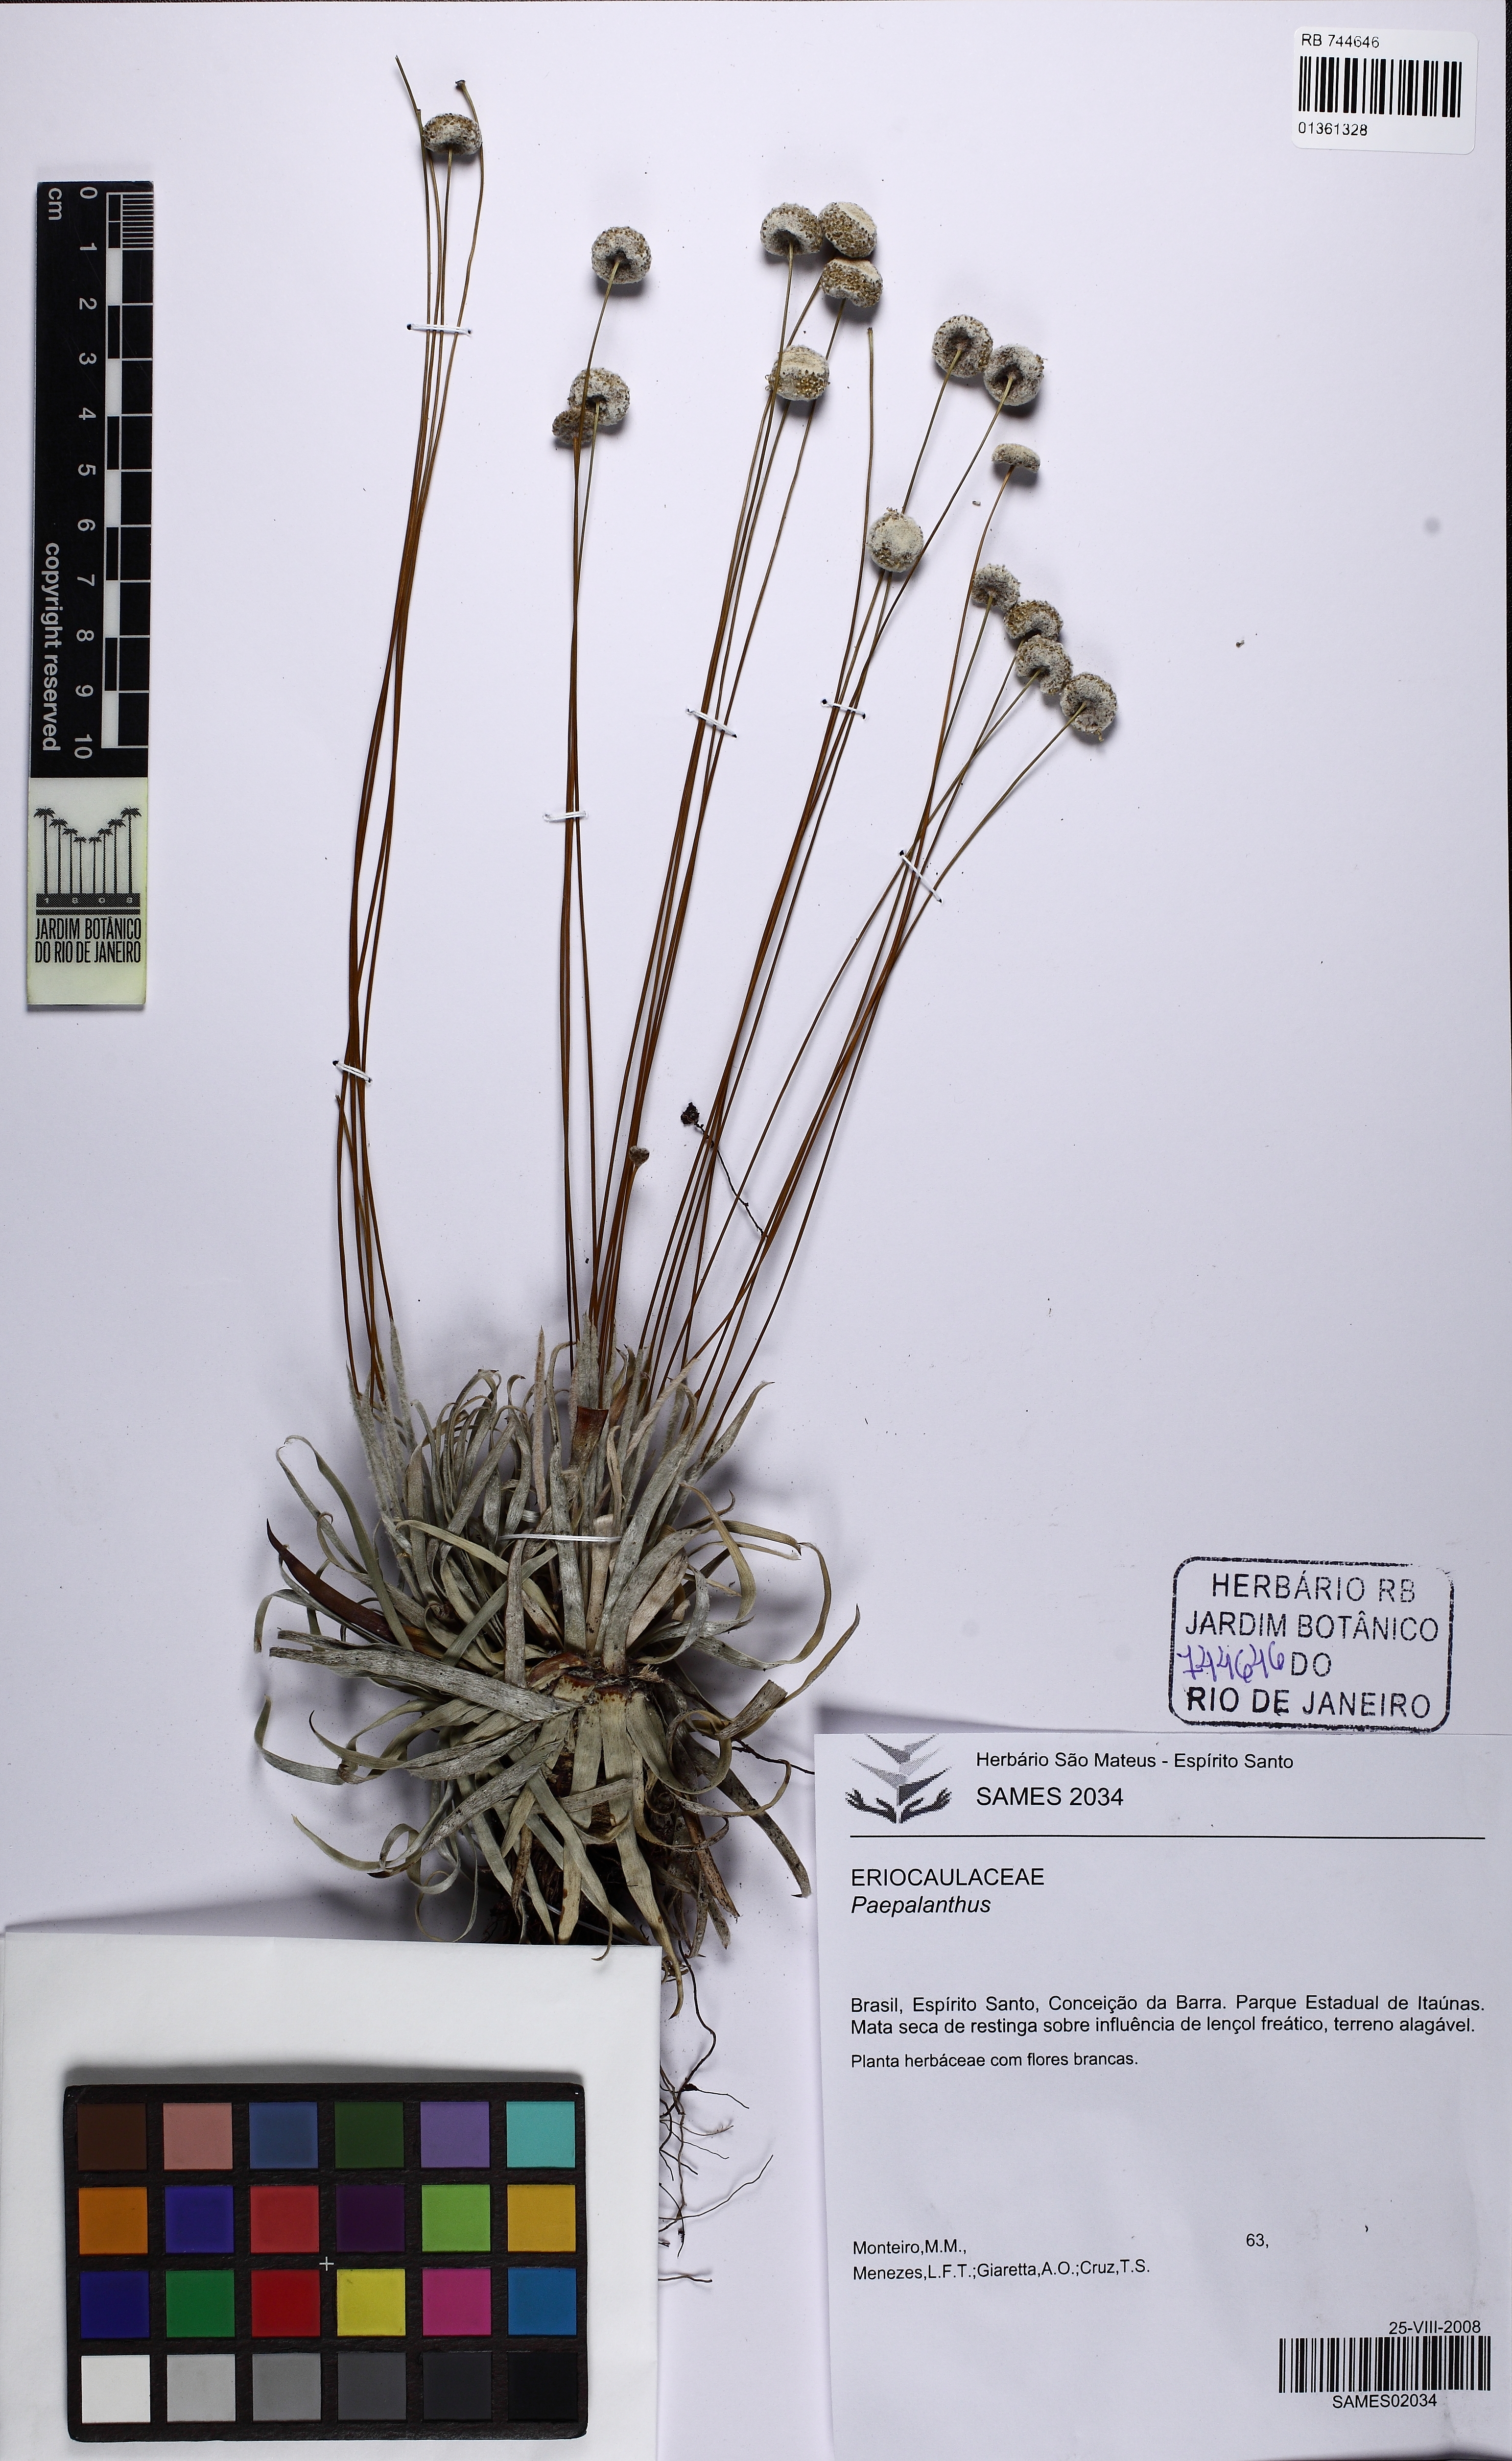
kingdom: Plantae
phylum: Tracheophyta
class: Liliopsida
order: Poales
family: Eriocaulaceae
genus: Paepalanthus
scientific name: Paepalanthus klotzschianus
